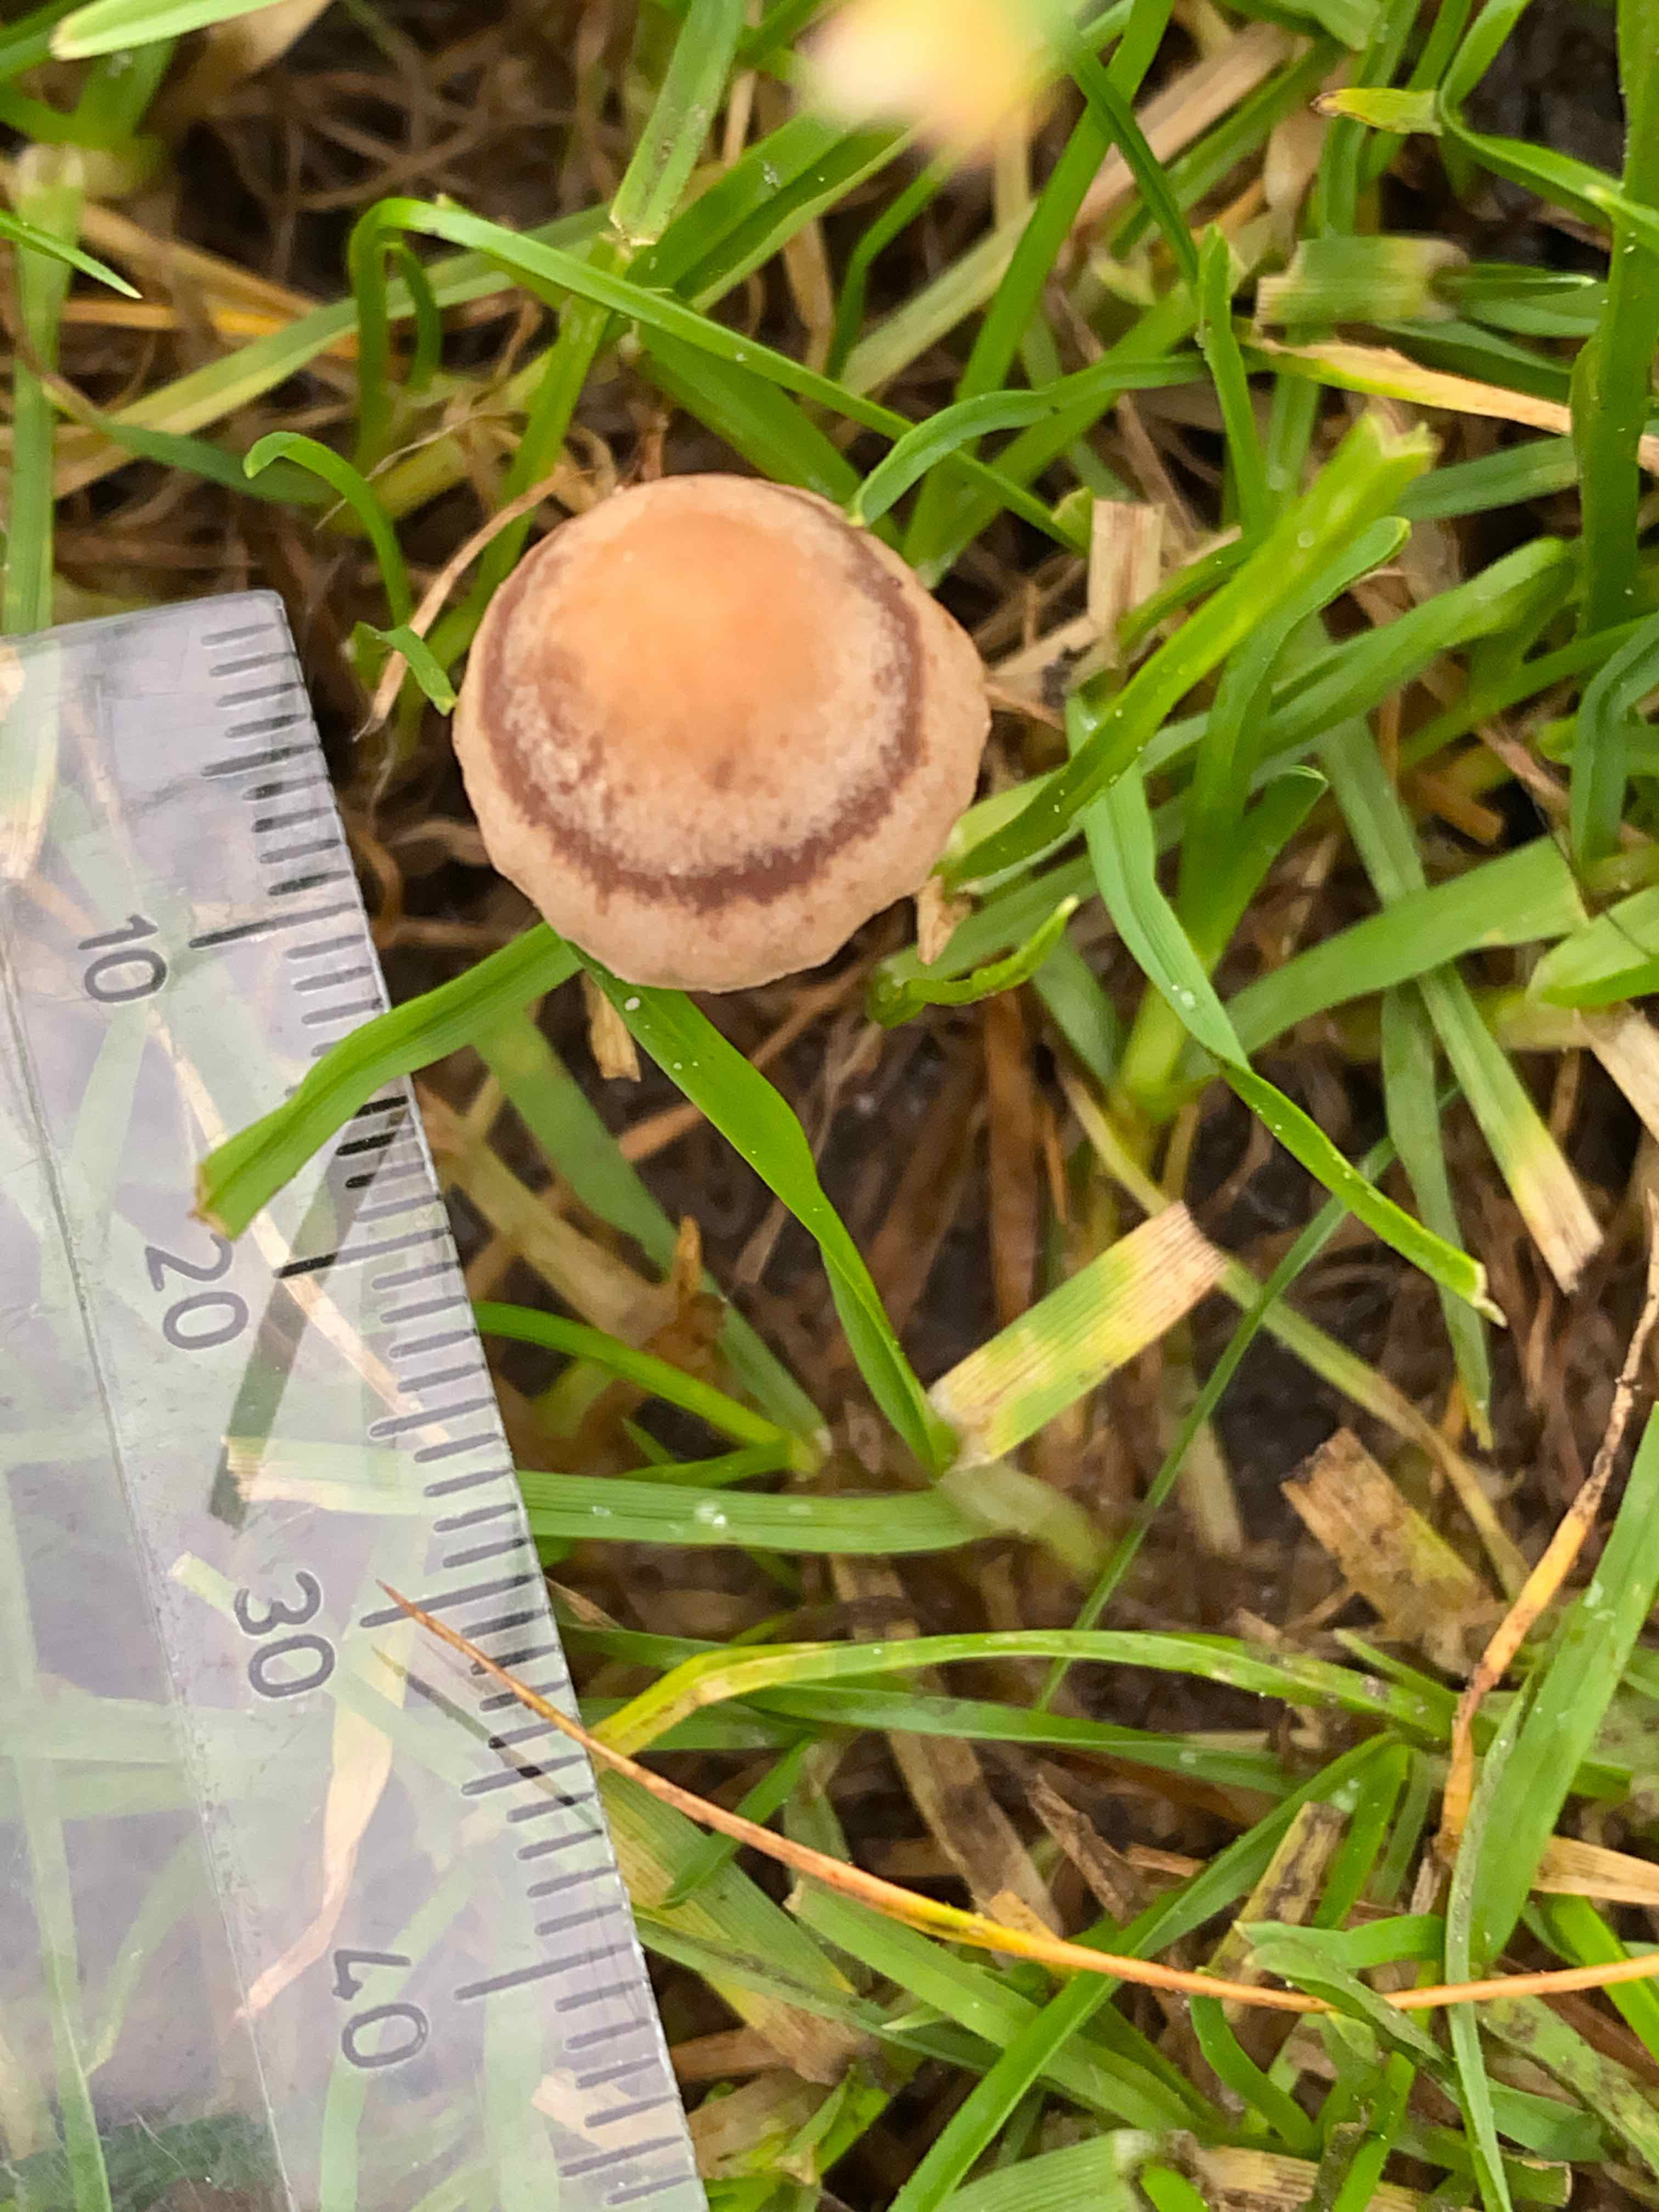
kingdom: Fungi
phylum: Basidiomycota
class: Agaricomycetes
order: Agaricales
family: Bolbitiaceae
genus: Panaeolina
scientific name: Panaeolina foenisecii
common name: høslætsvamp
